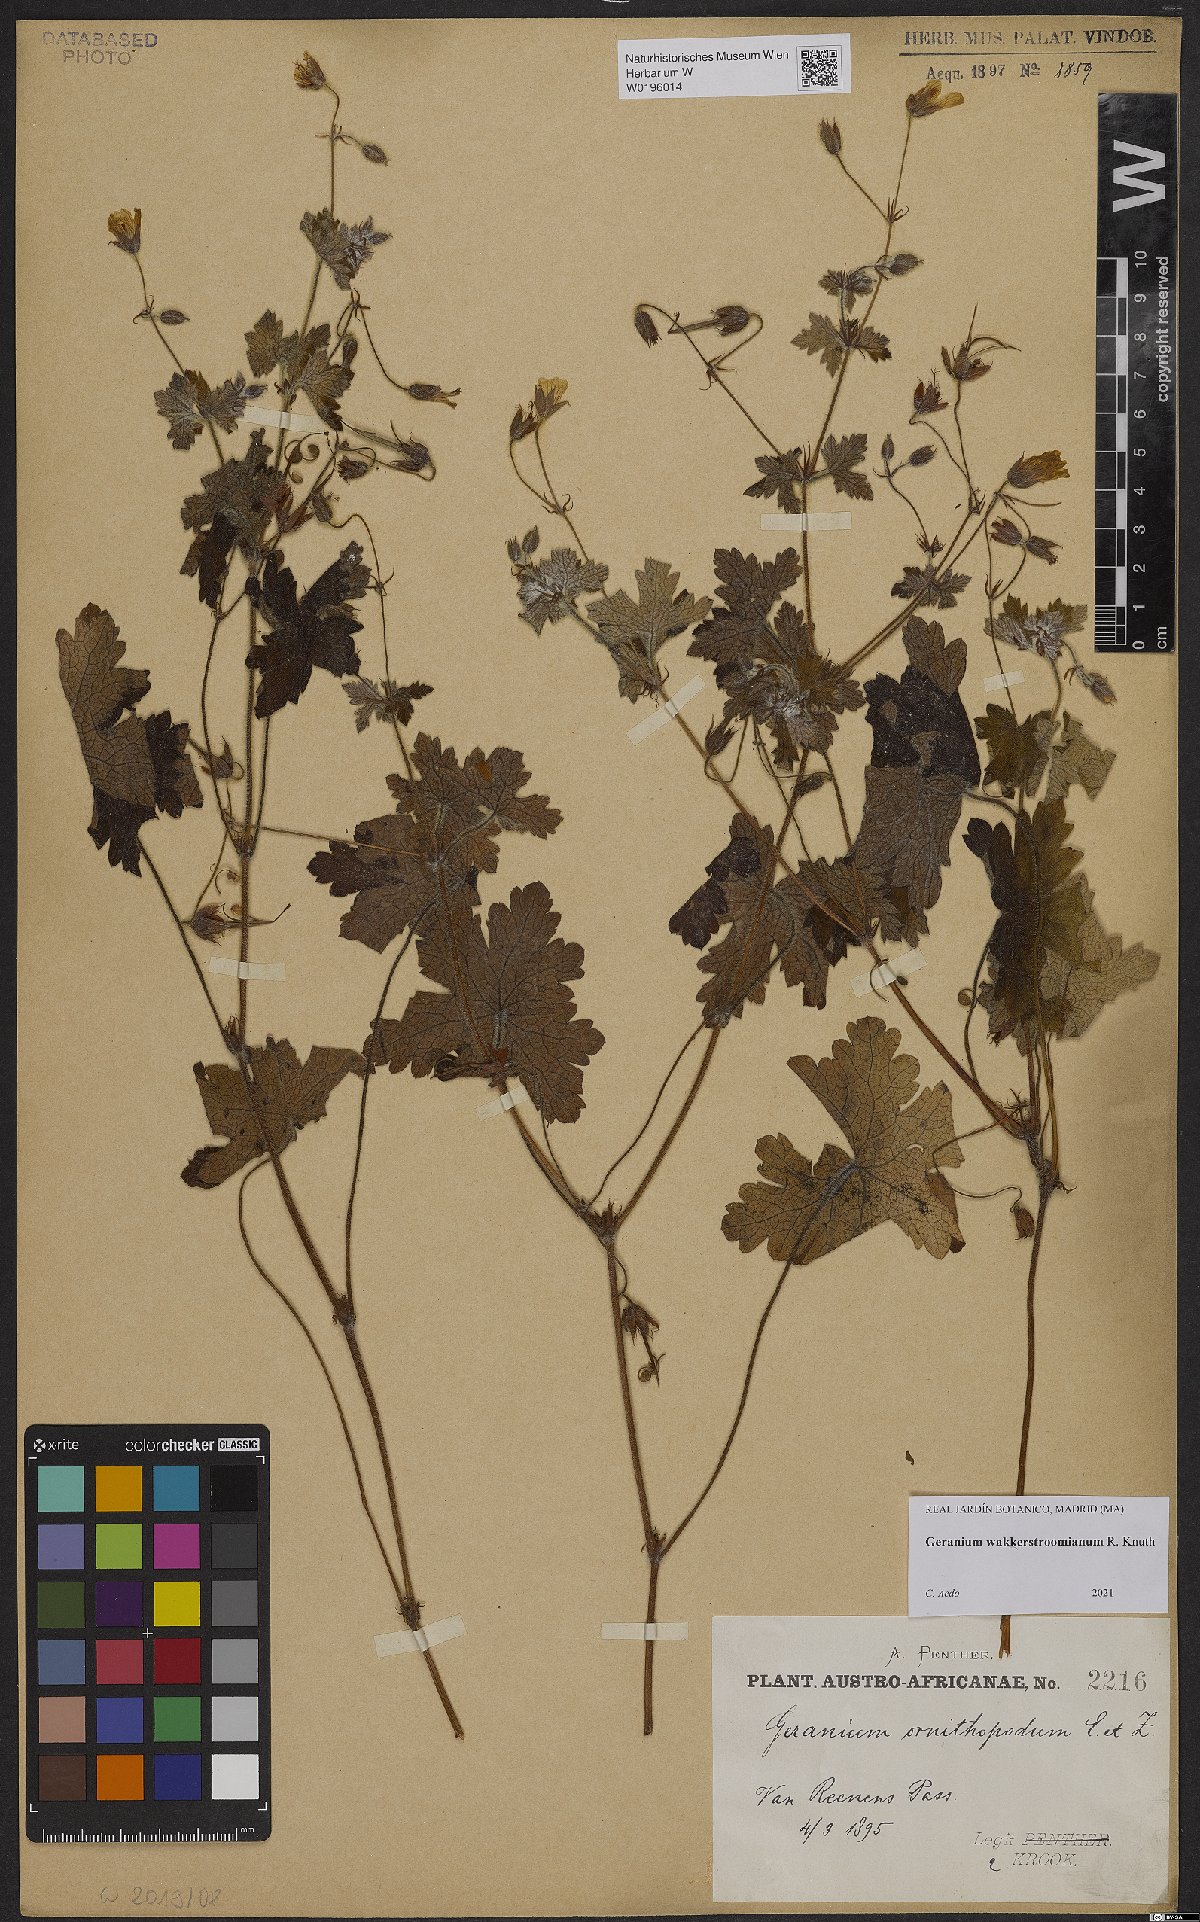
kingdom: Plantae
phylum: Tracheophyta
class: Magnoliopsida
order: Geraniales
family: Geraniaceae
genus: Geranium
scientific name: Geranium wakkerstroomianum
